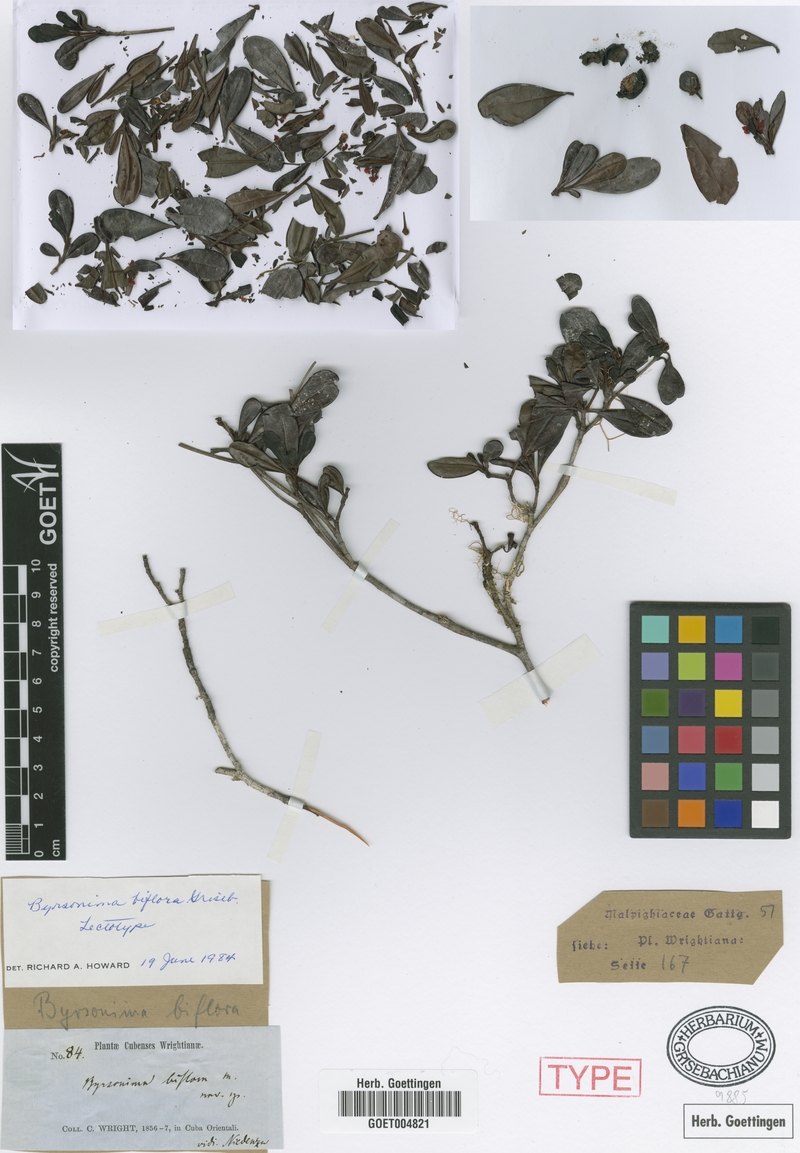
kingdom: Plantae
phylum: Tracheophyta
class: Magnoliopsida
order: Malpighiales
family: Malpighiaceae
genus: Byrsonima
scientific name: Byrsonima lucida
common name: Clam-cherry
